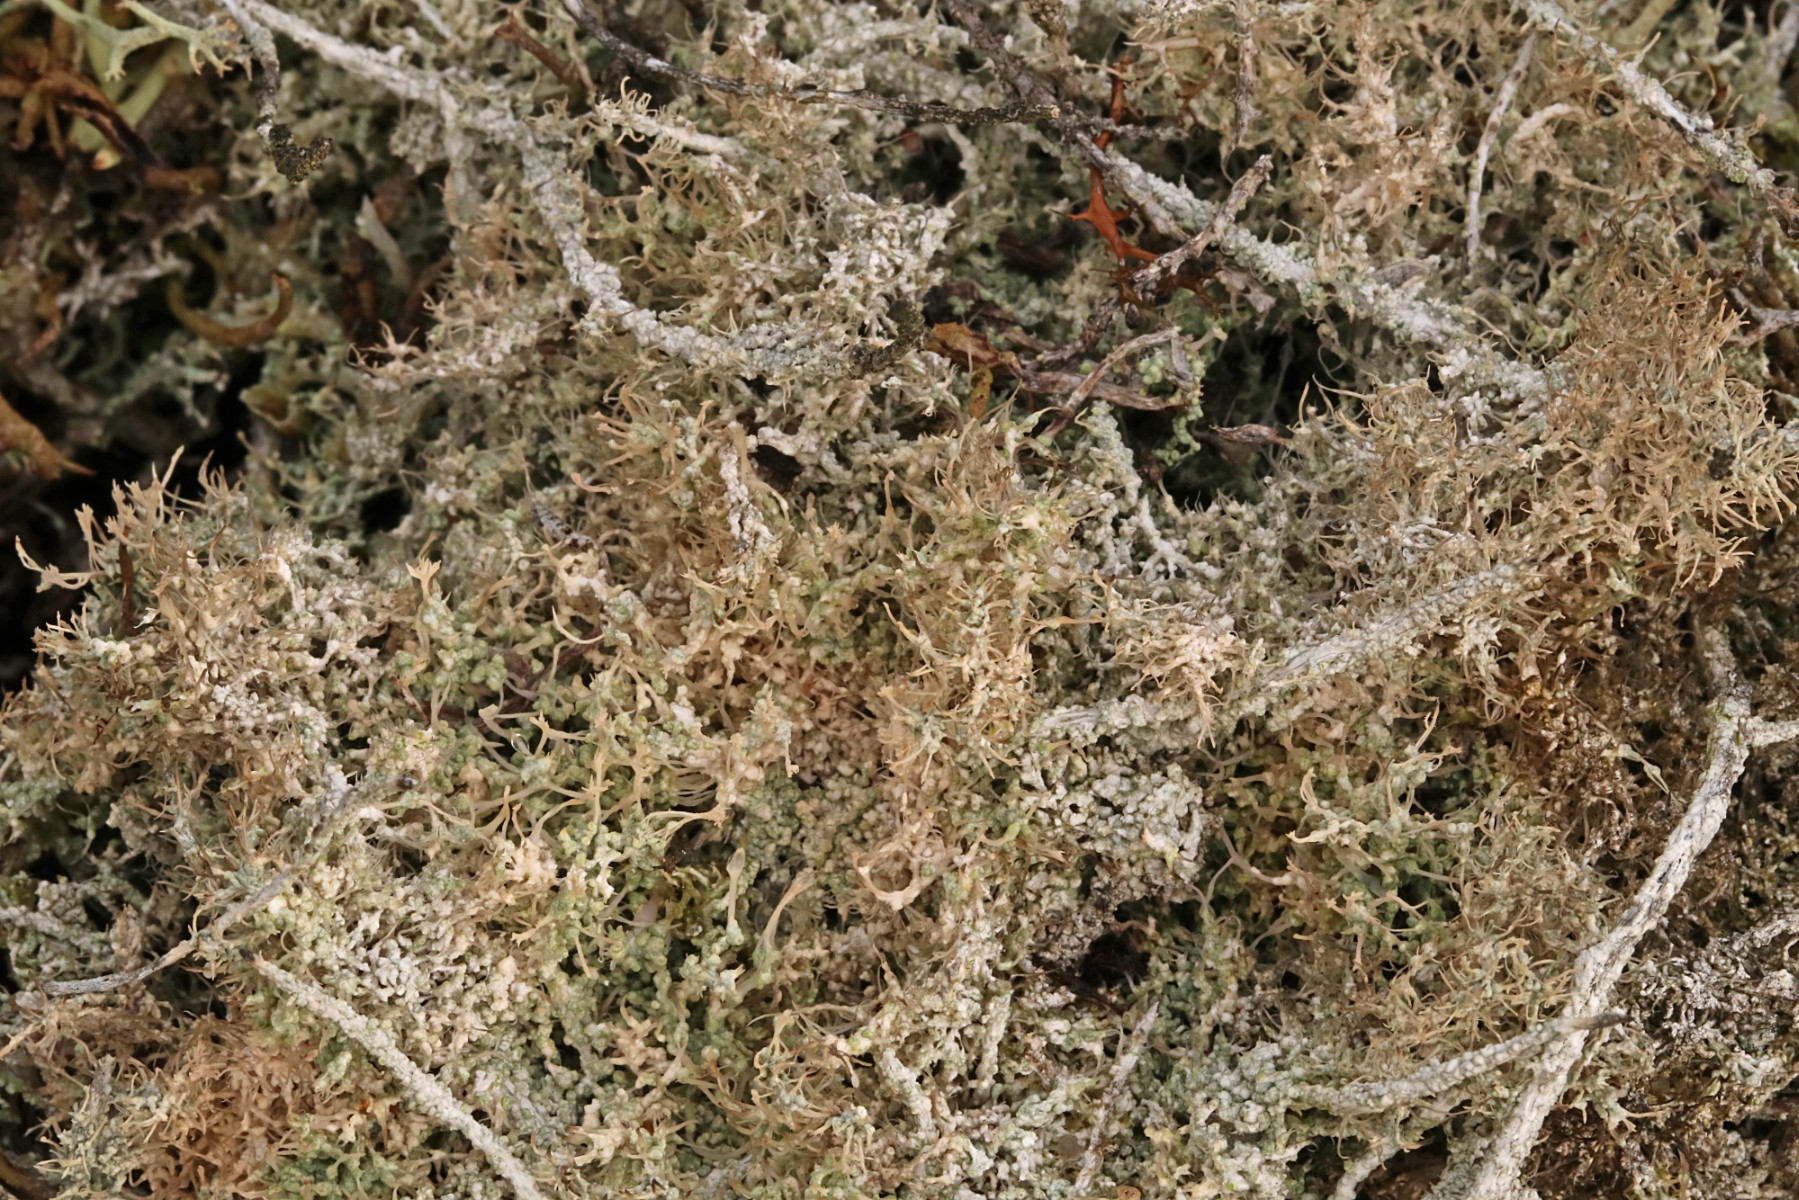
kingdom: Fungi
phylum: Ascomycota
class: Lecanoromycetes
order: Pertusariales
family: Ochrolechiaceae
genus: Ochrolechia
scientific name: Ochrolechia frigida
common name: fjeld-blegskivelav
